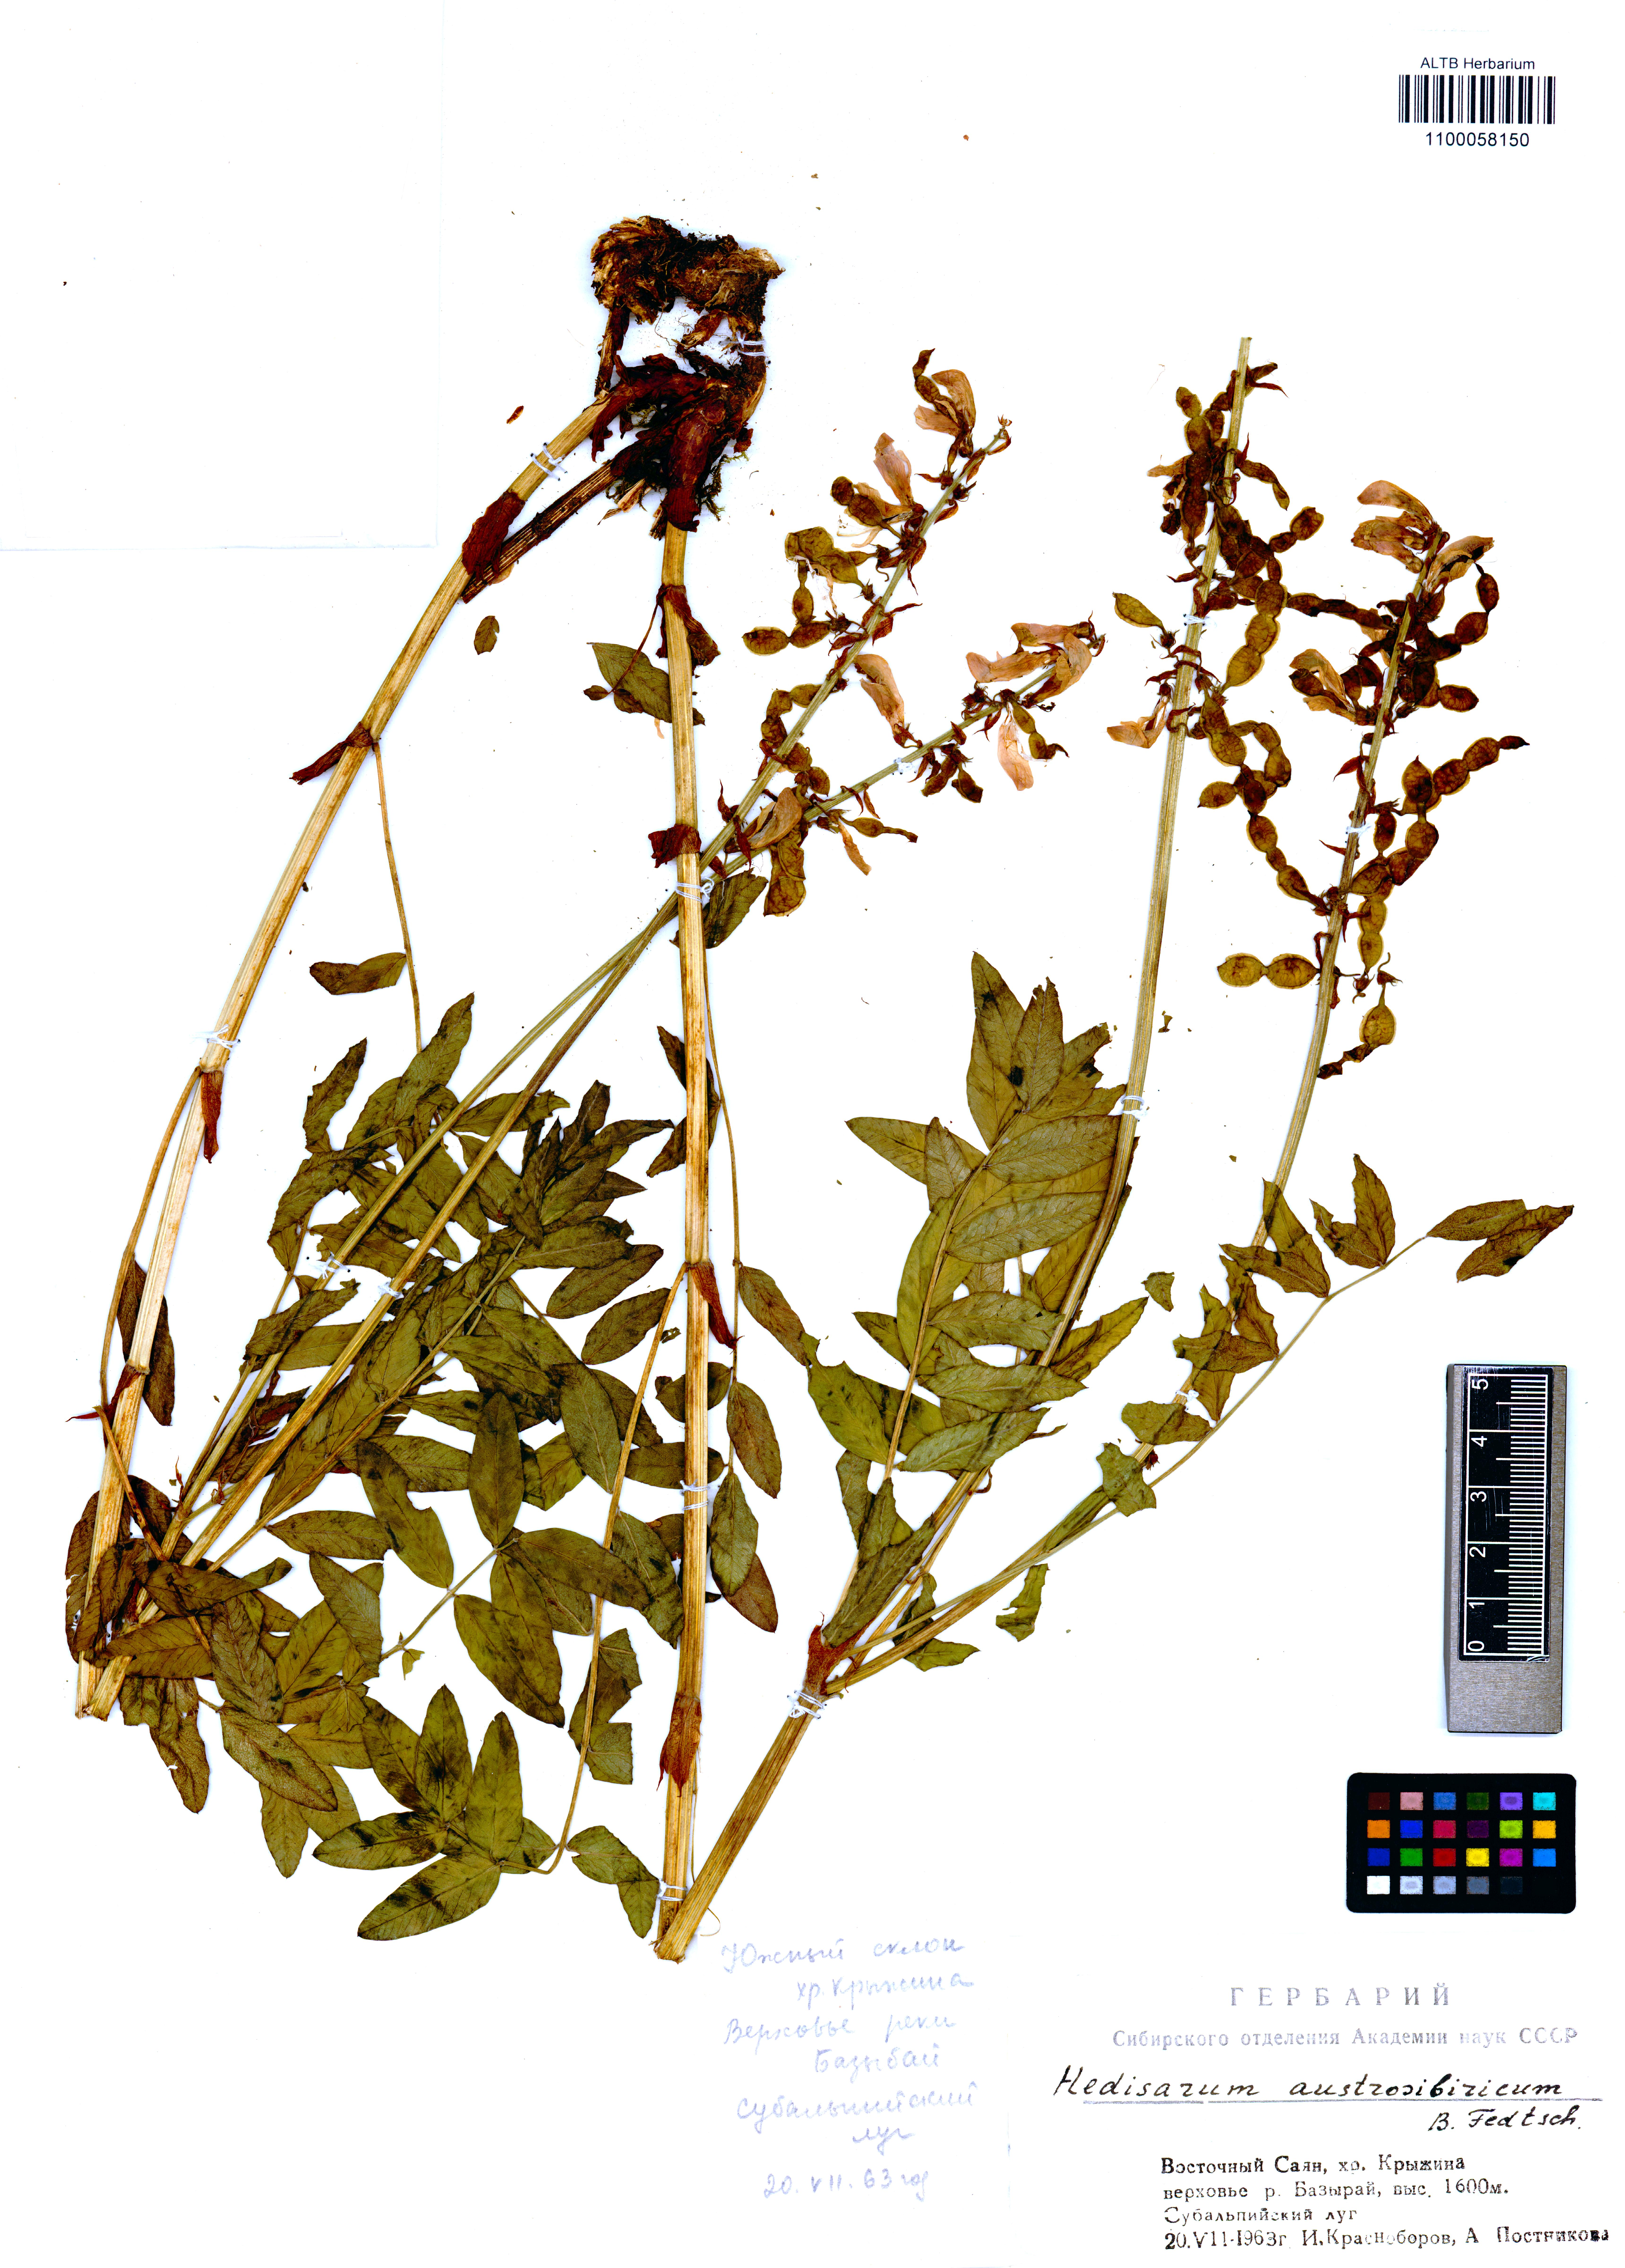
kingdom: Plantae
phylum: Tracheophyta
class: Magnoliopsida
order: Fabales
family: Fabaceae
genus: Hedysarum
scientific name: Hedysarum neglectum
